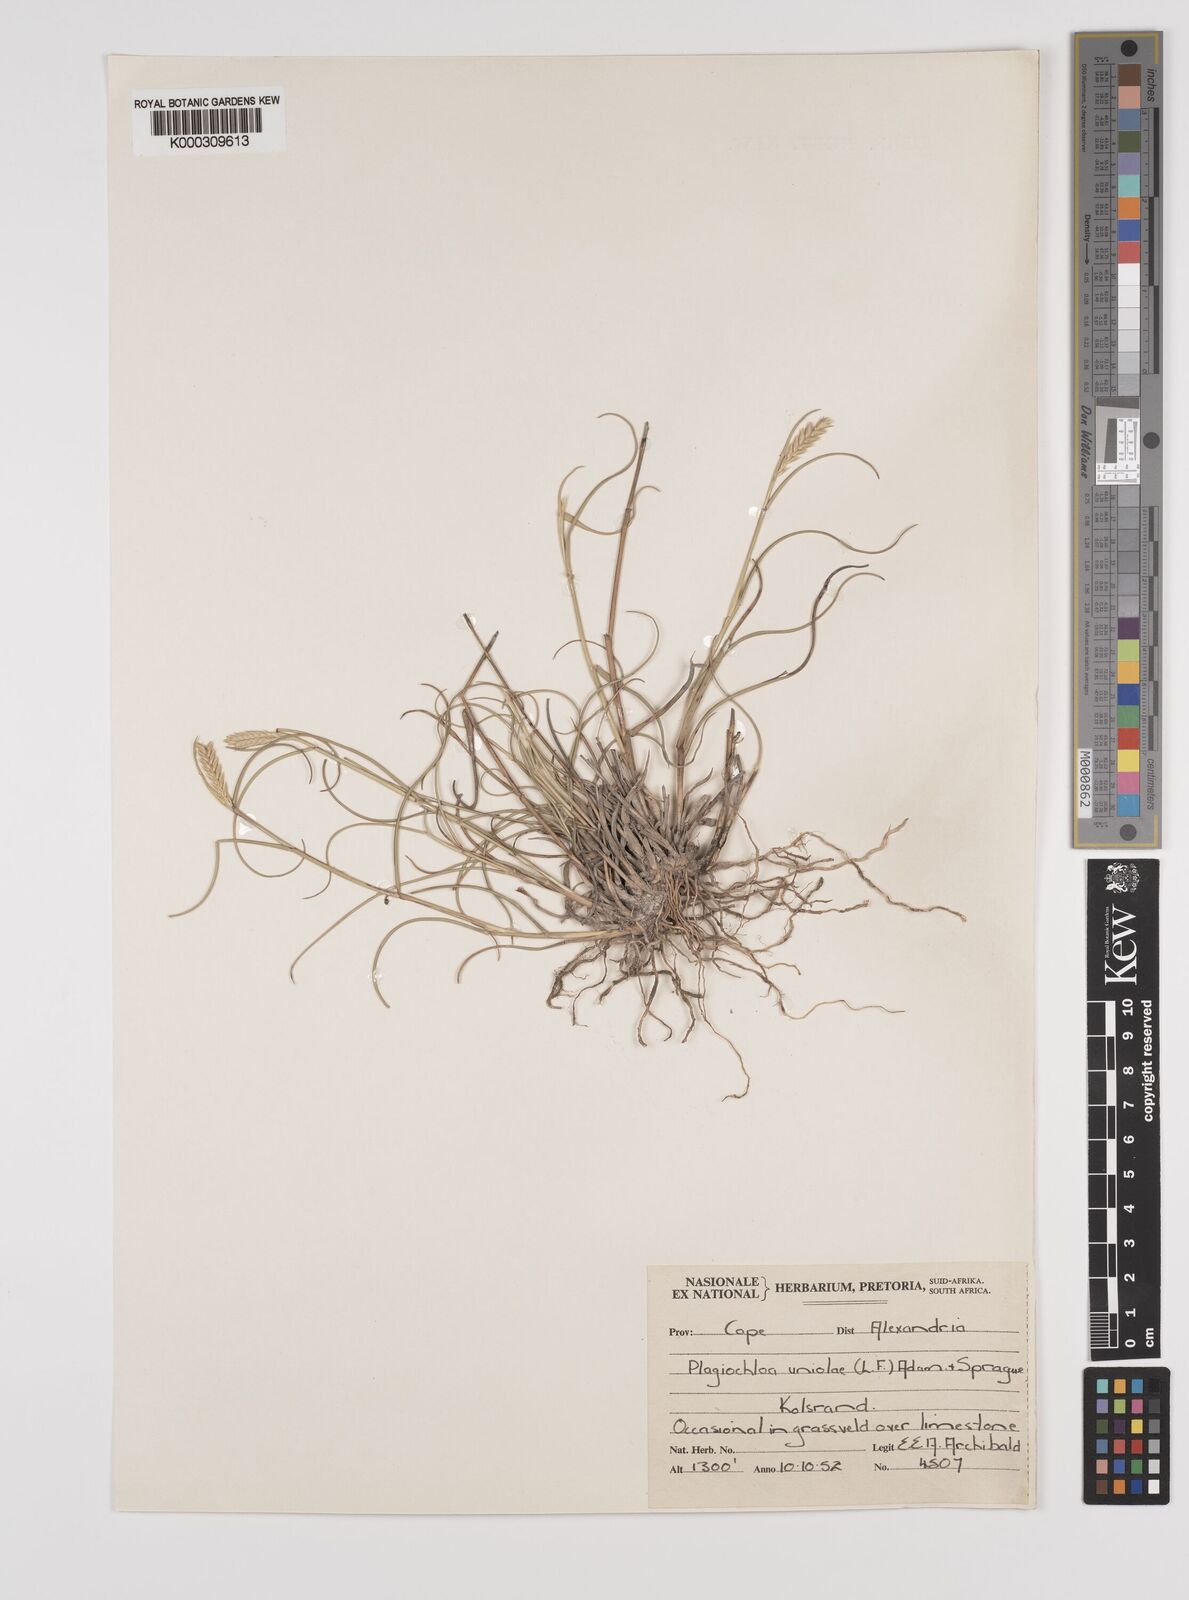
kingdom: Plantae
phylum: Tracheophyta
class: Liliopsida
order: Poales
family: Poaceae
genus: Tribolium
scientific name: Tribolium uniolae
